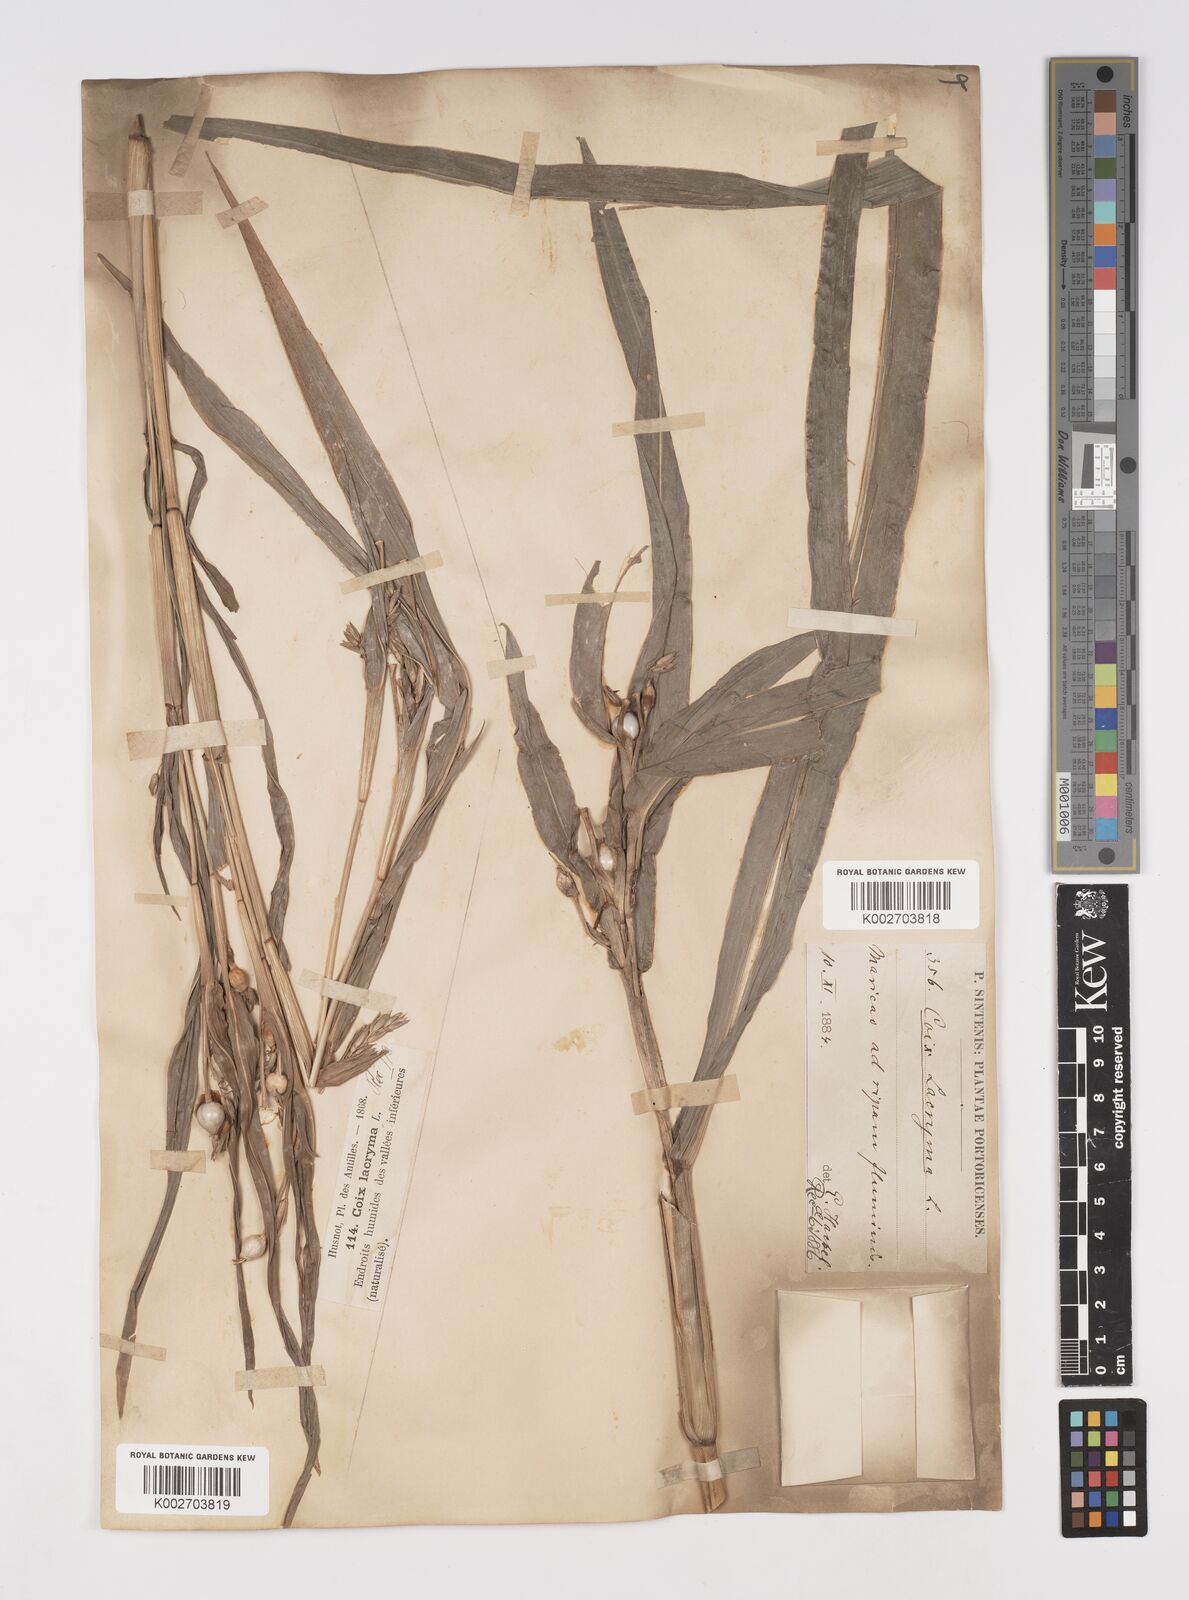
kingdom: Plantae
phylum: Tracheophyta
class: Liliopsida
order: Poales
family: Poaceae
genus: Coix
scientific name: Coix lacryma-jobi
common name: Job's tears
